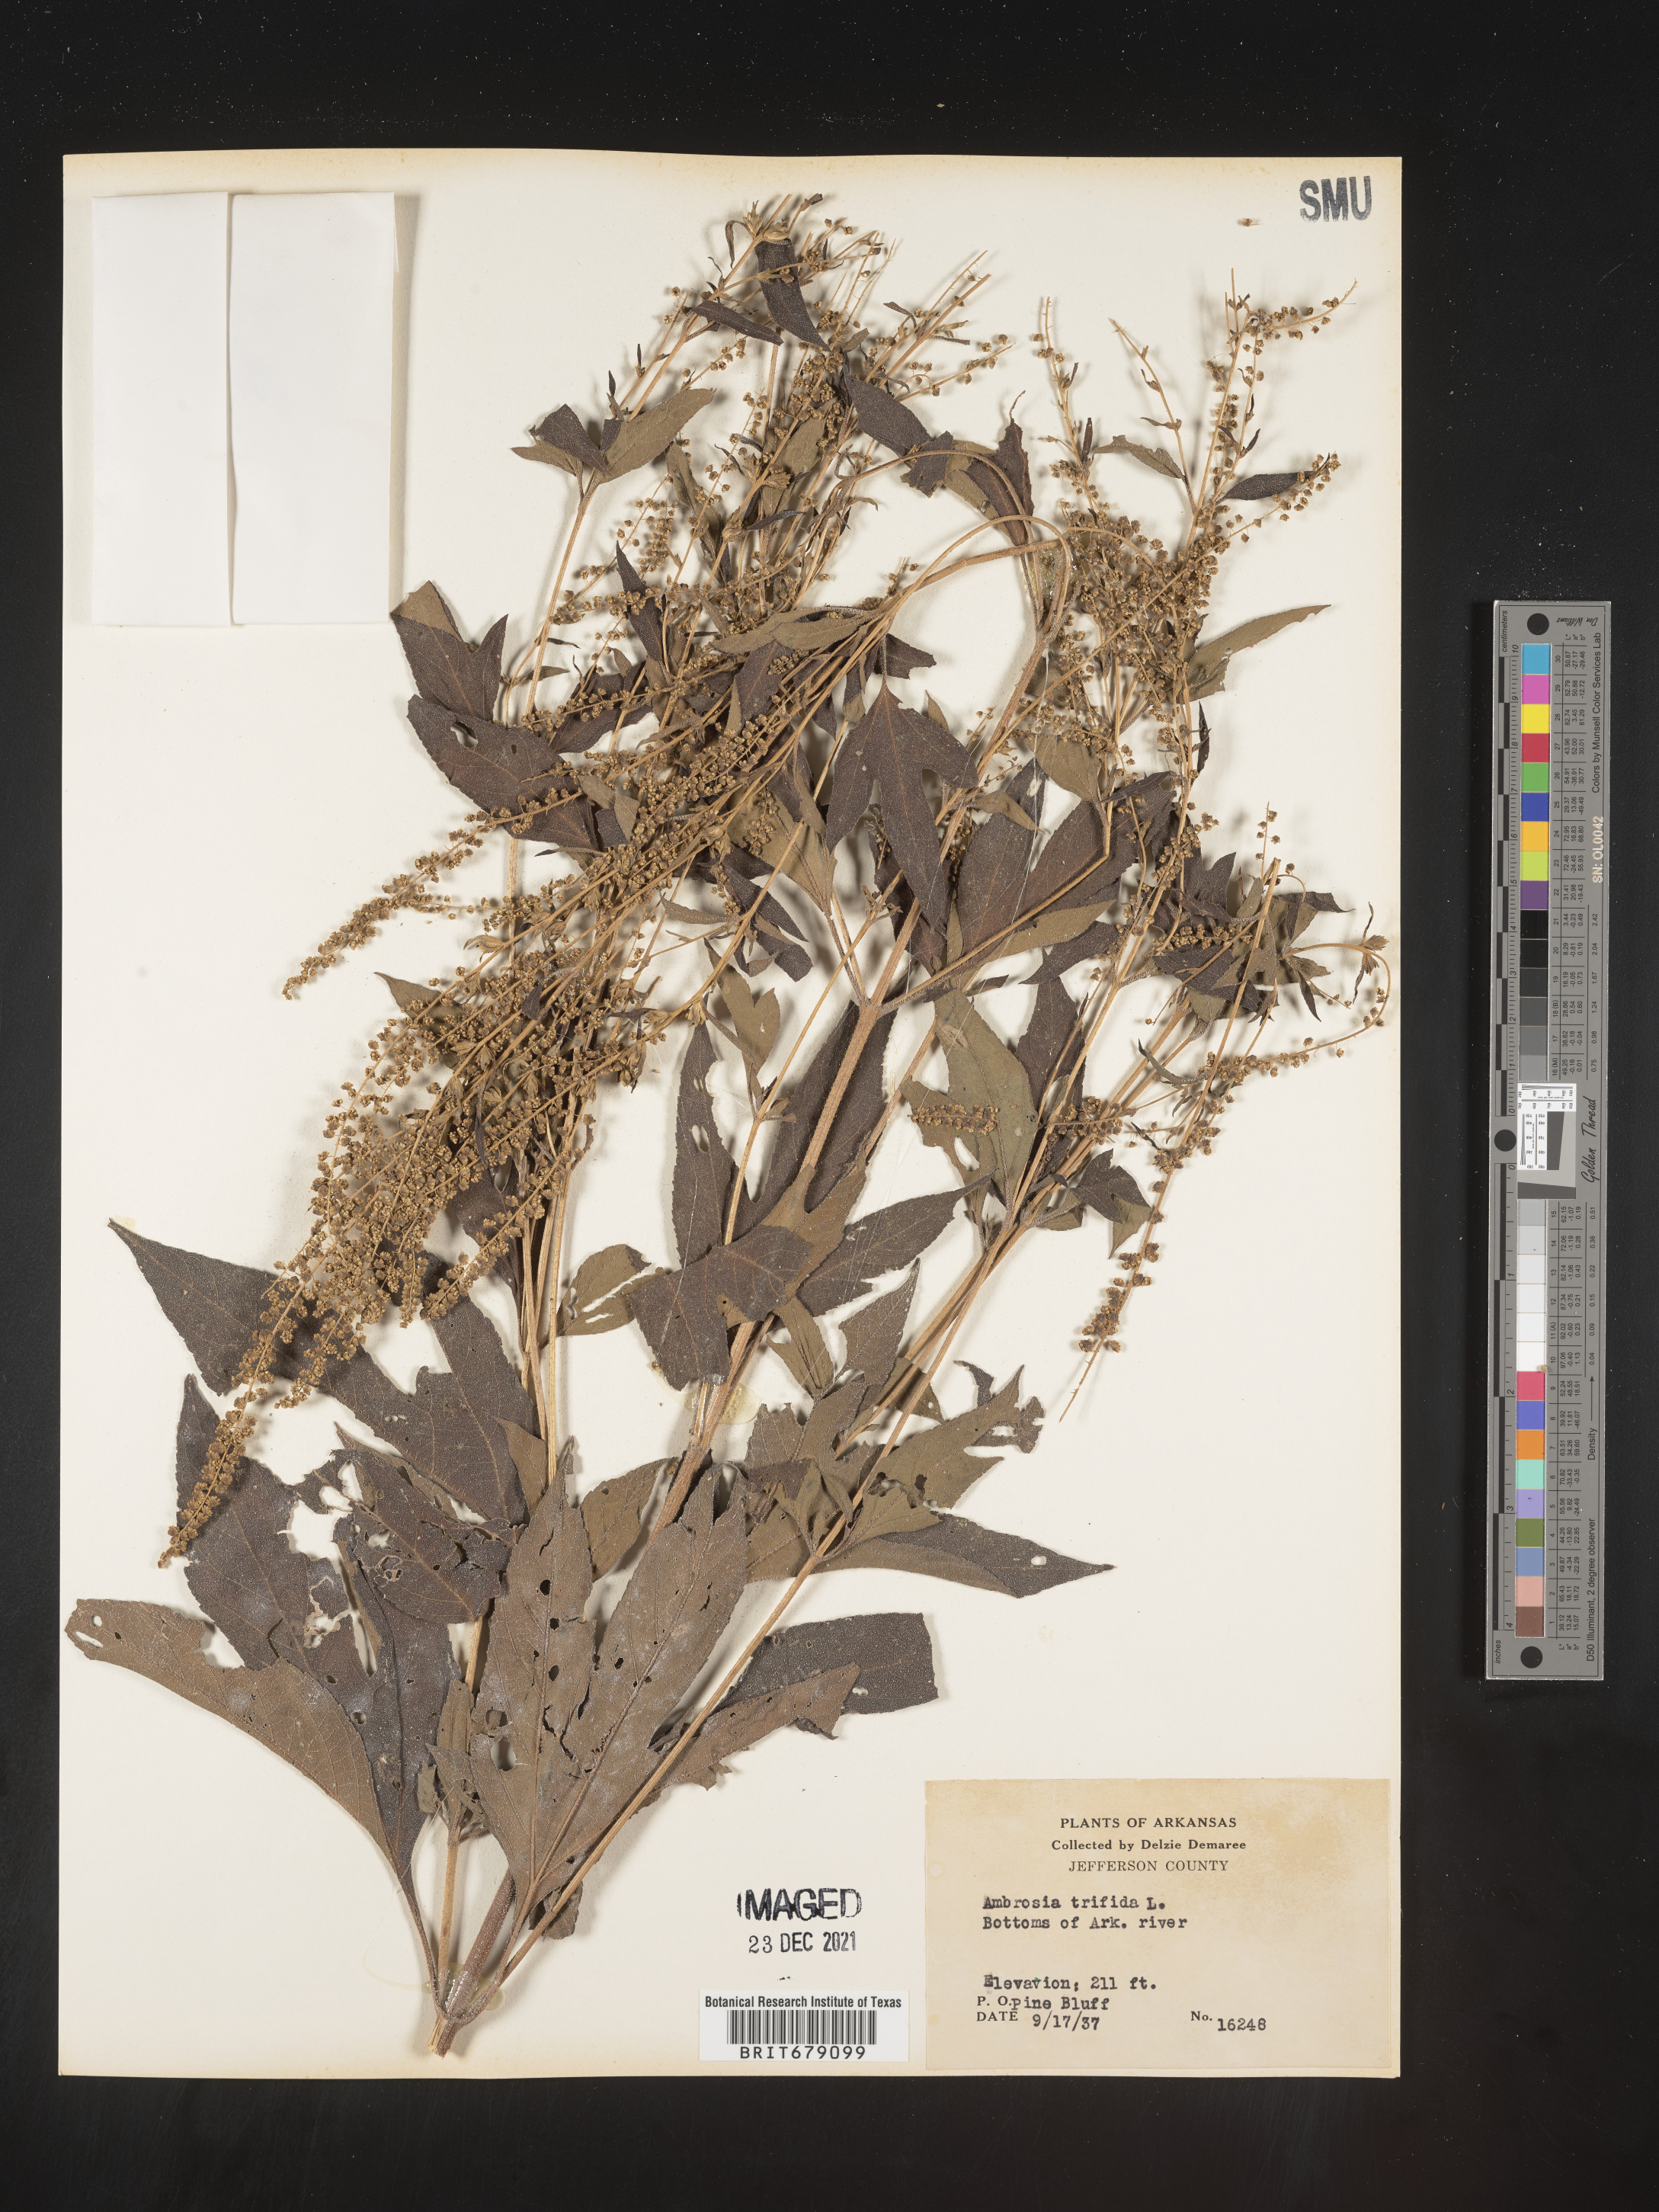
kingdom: Plantae
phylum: Tracheophyta
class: Magnoliopsida
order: Asterales
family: Asteraceae
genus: Ambrosia
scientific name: Ambrosia trifida
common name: Giant ragweed
